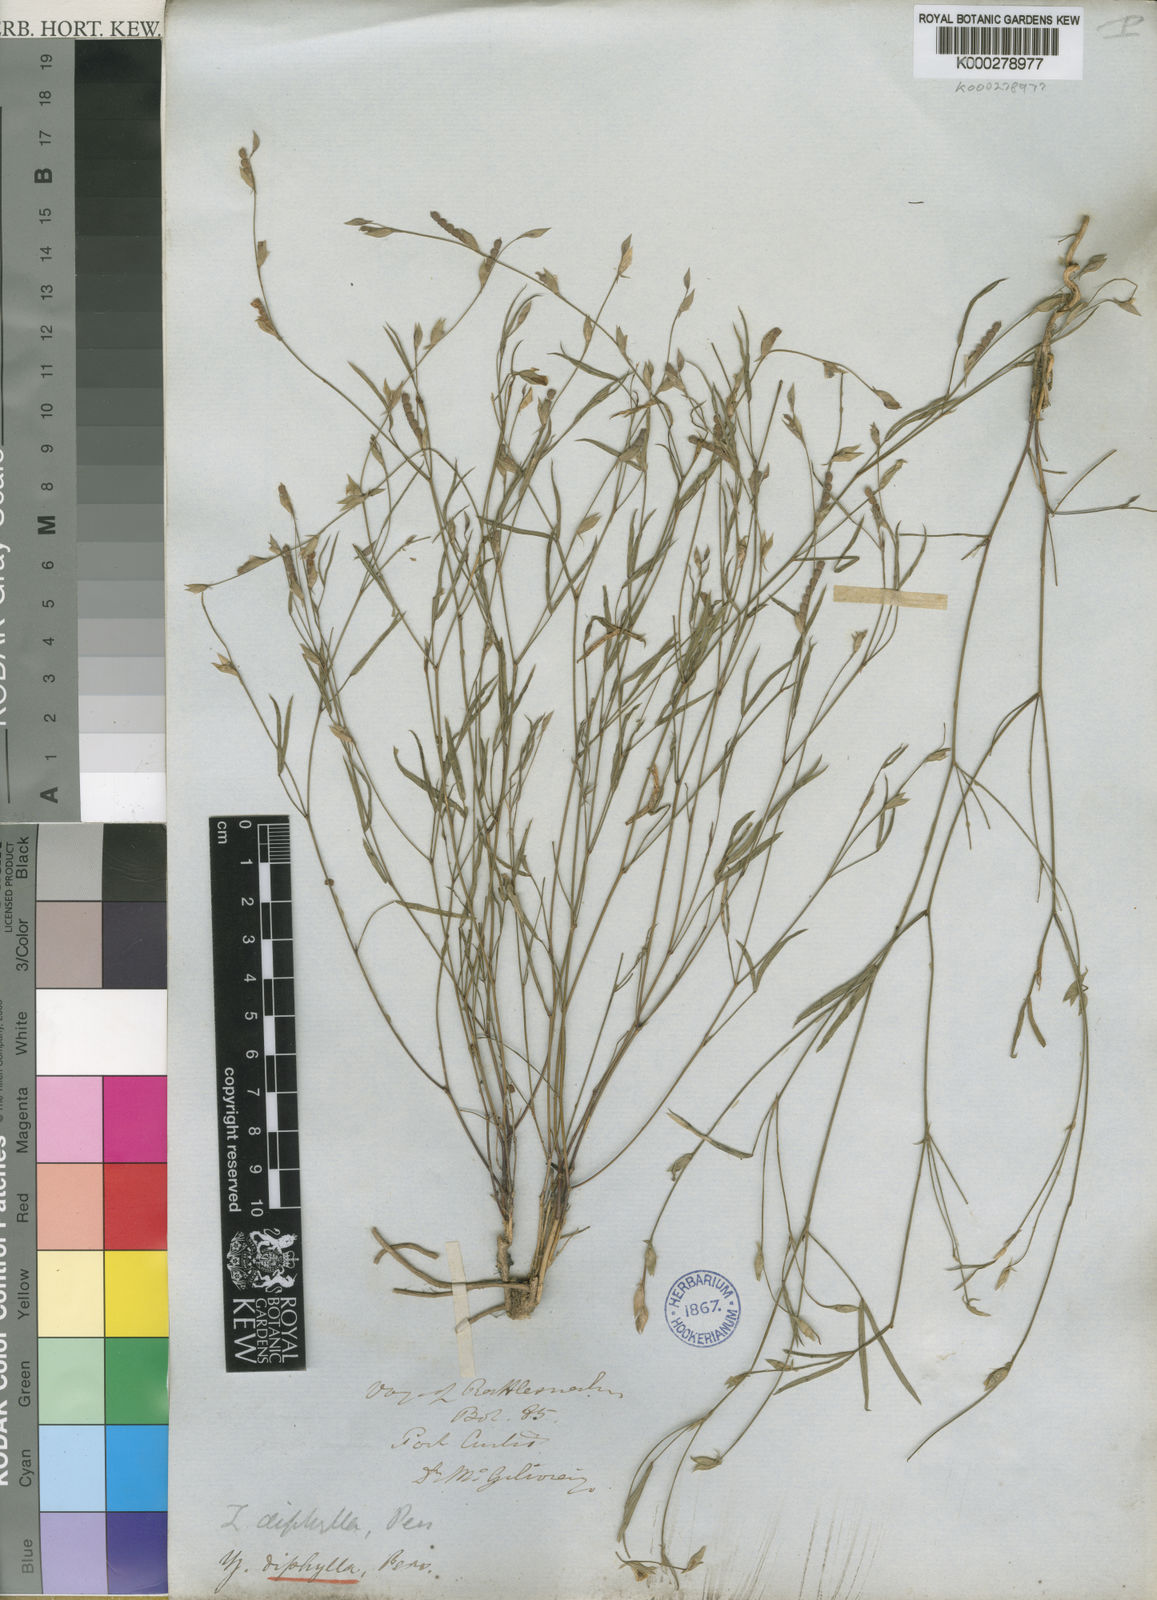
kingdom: Plantae
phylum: Tracheophyta
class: Magnoliopsida
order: Fabales
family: Fabaceae
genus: Zornia
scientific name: Zornia diphylla
